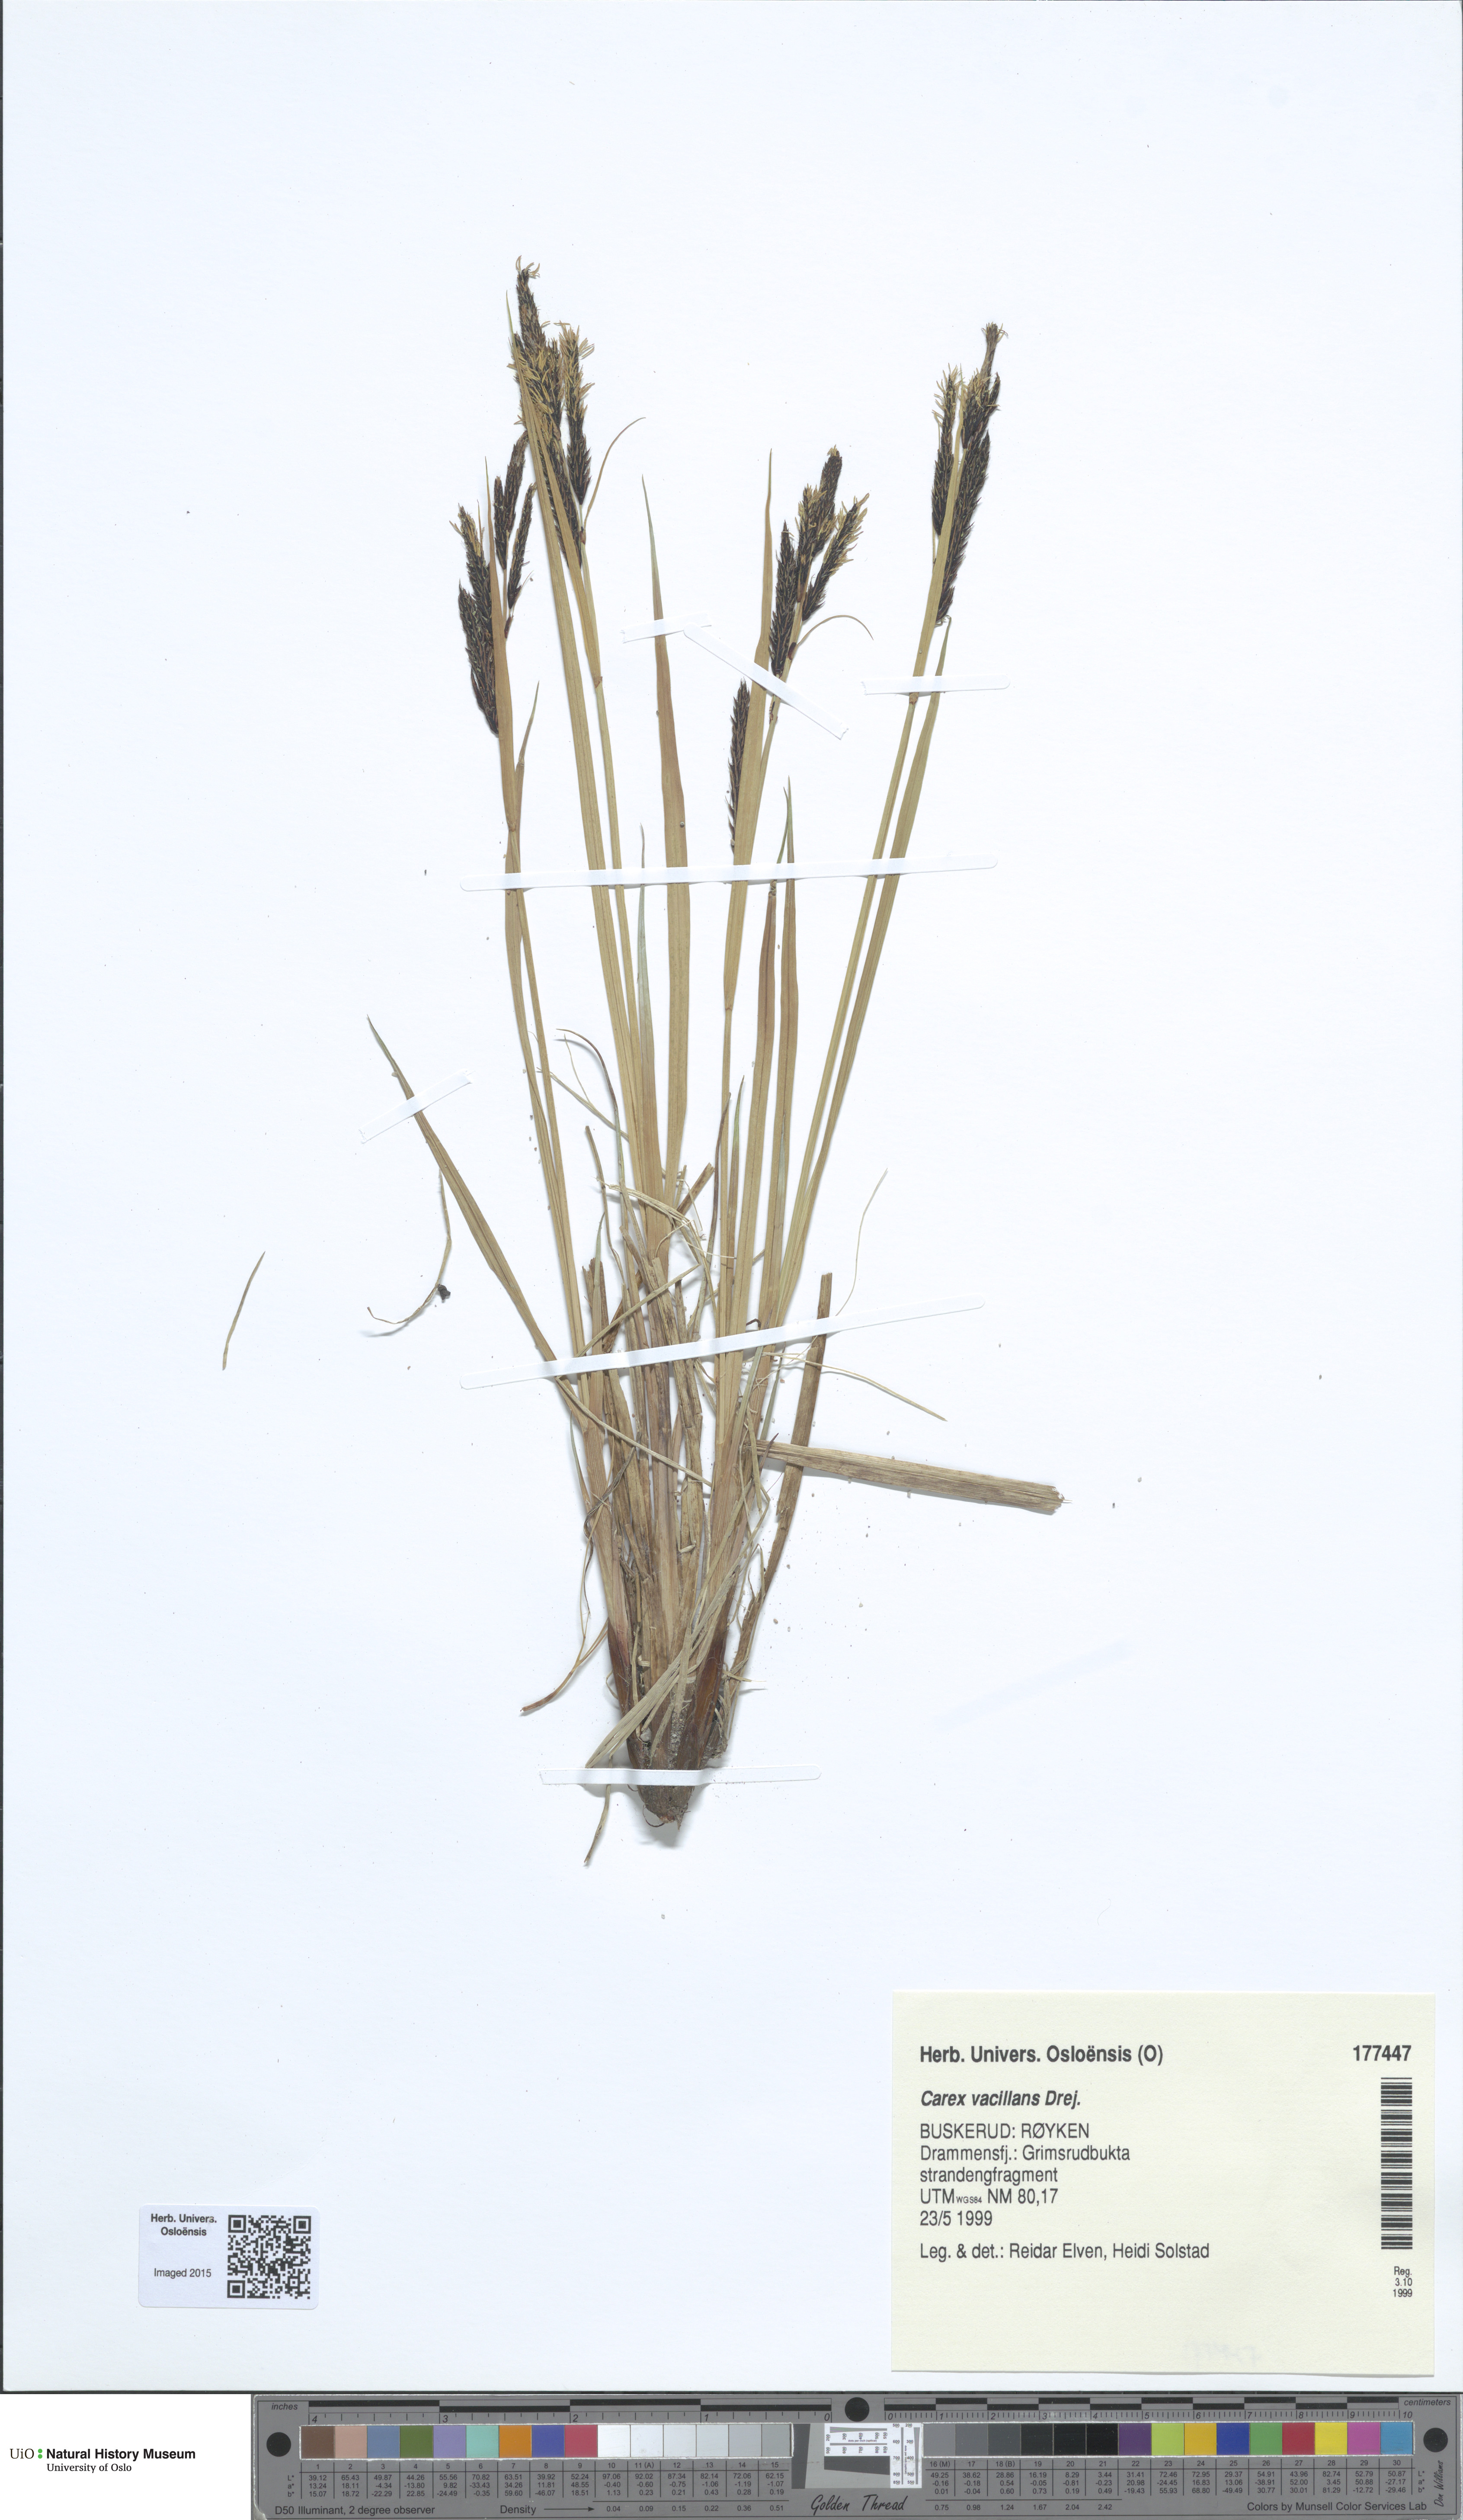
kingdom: Plantae
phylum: Tracheophyta
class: Liliopsida
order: Poales
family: Cyperaceae
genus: Carex
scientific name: Carex vacillans
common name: Sedge
